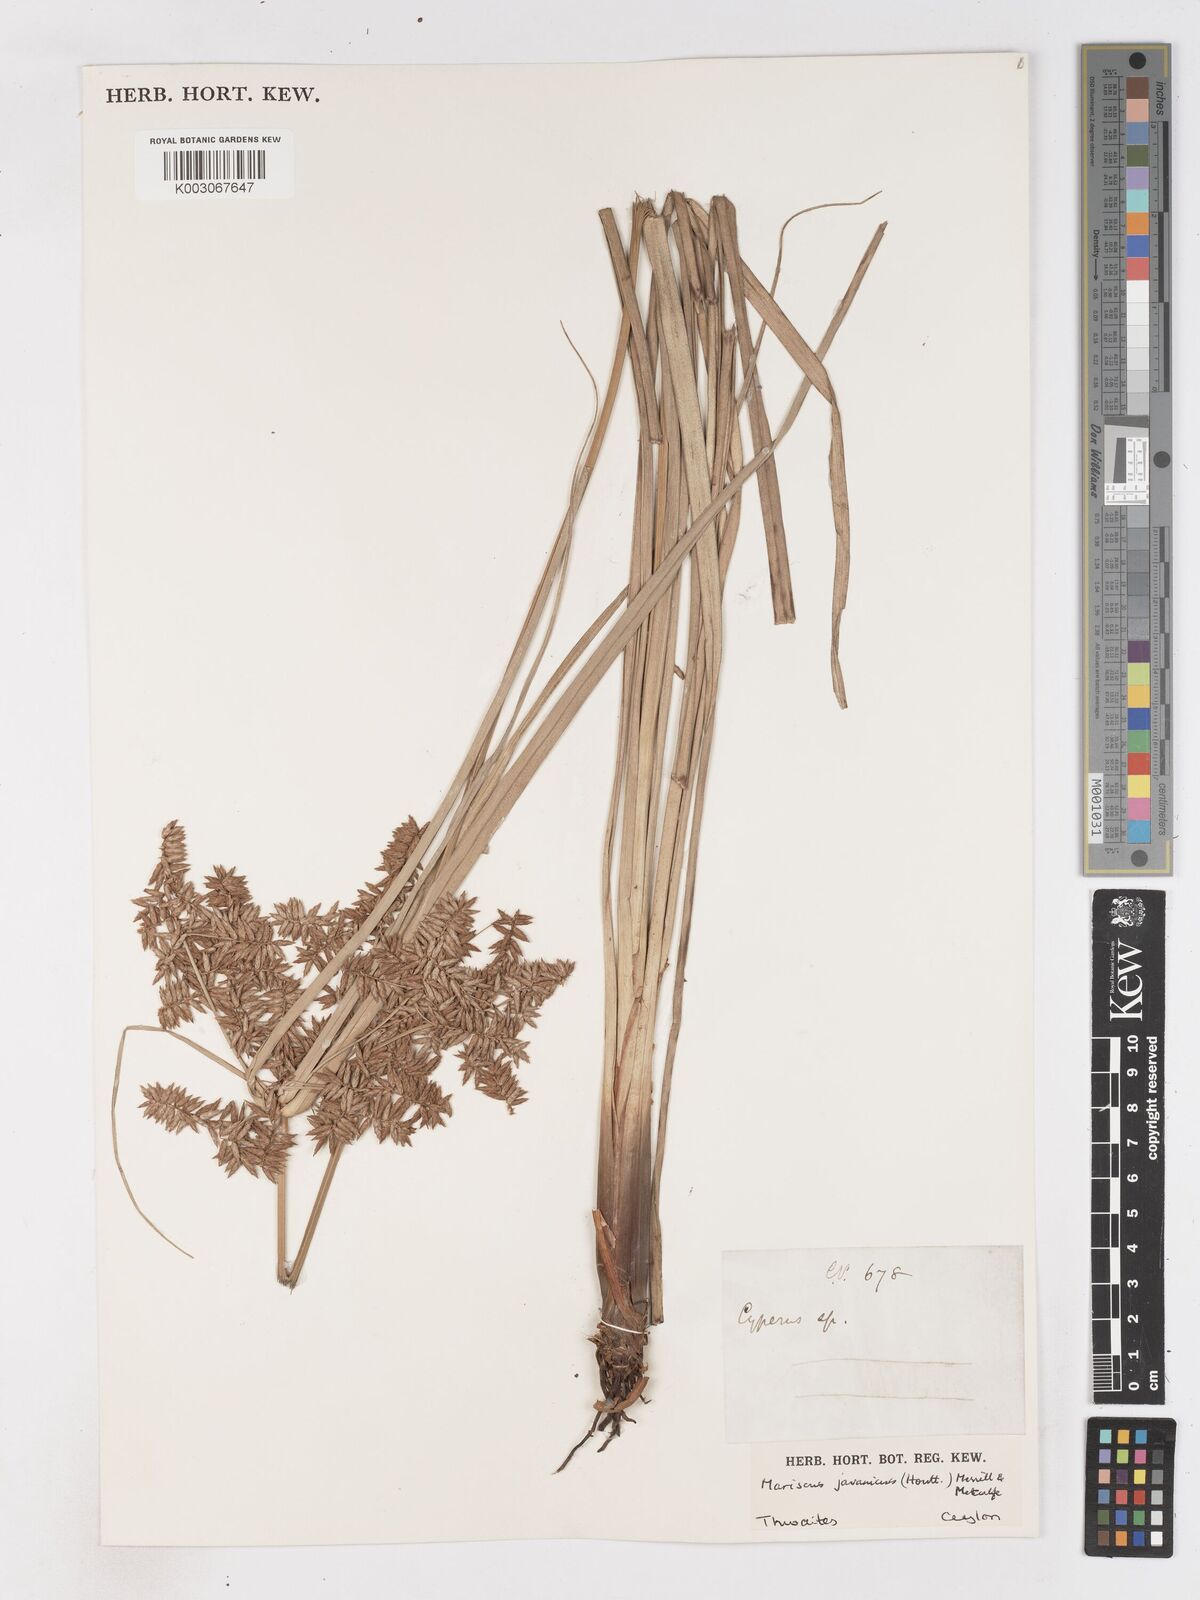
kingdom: Plantae
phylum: Tracheophyta
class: Liliopsida
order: Poales
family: Cyperaceae
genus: Cyperus
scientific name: Cyperus javanicus
